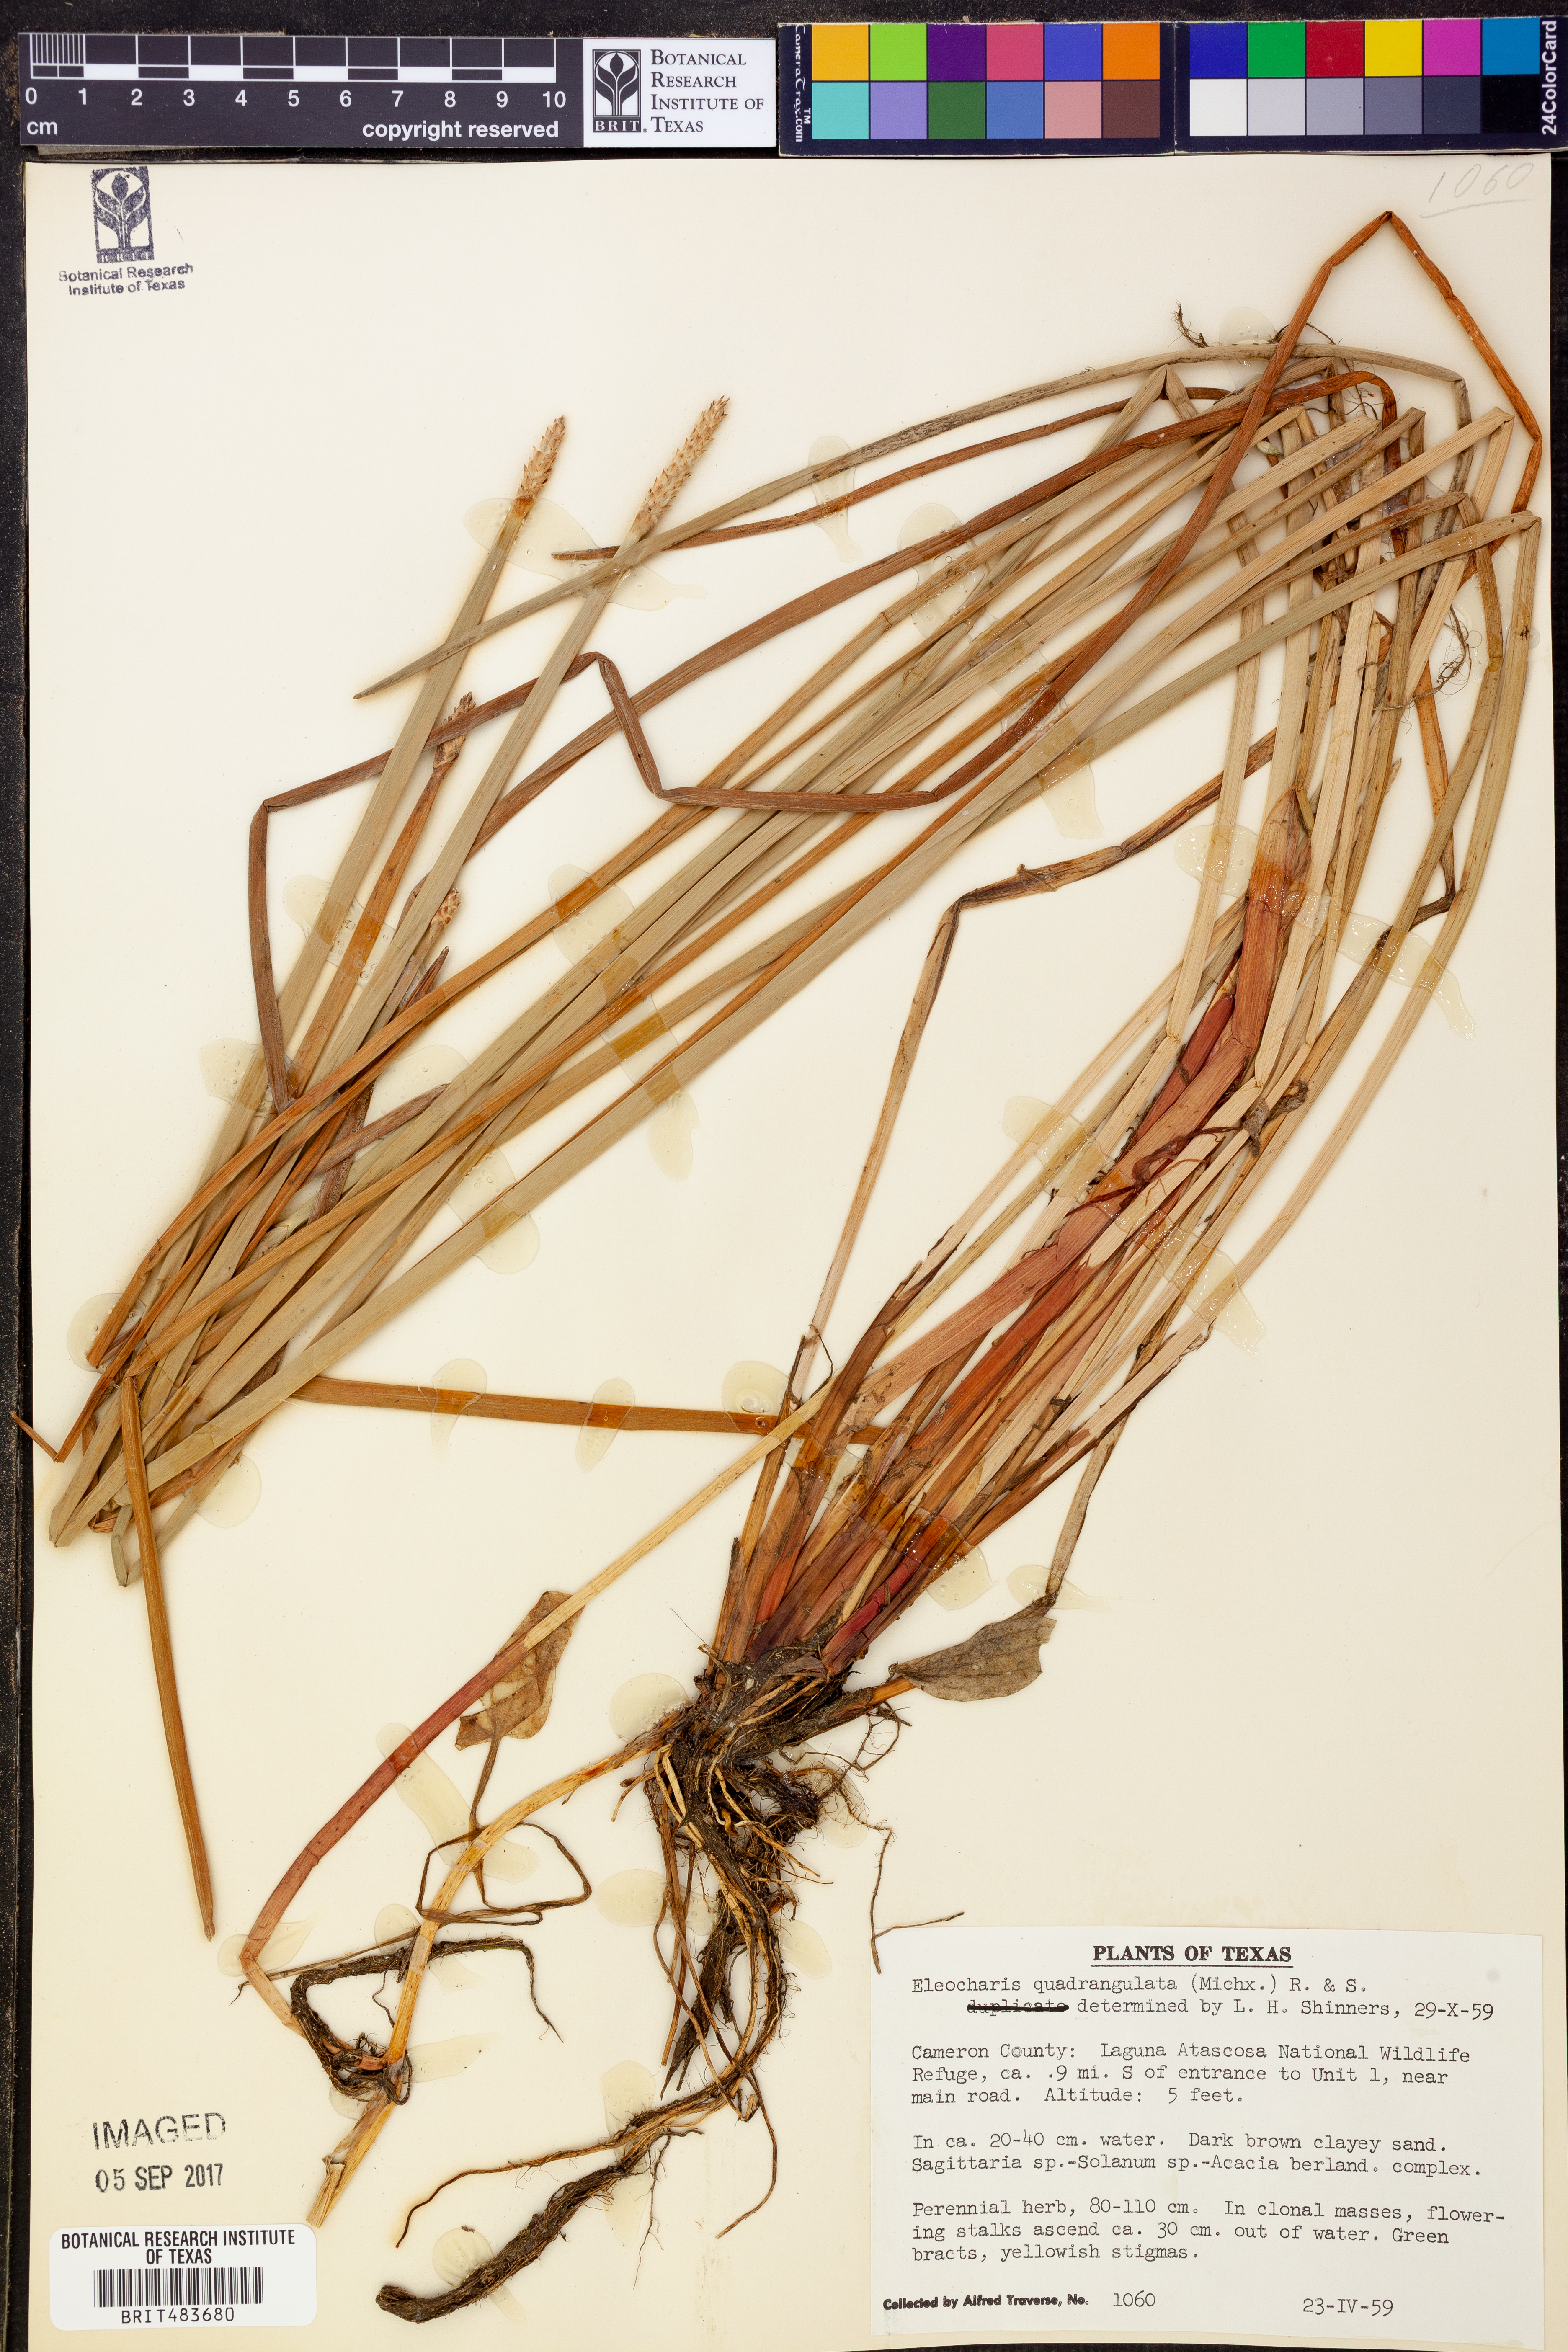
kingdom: Plantae
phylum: Tracheophyta
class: Liliopsida
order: Poales
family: Cyperaceae
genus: Eleocharis
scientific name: Eleocharis quadrangulata
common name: Square-stem spike-rush
